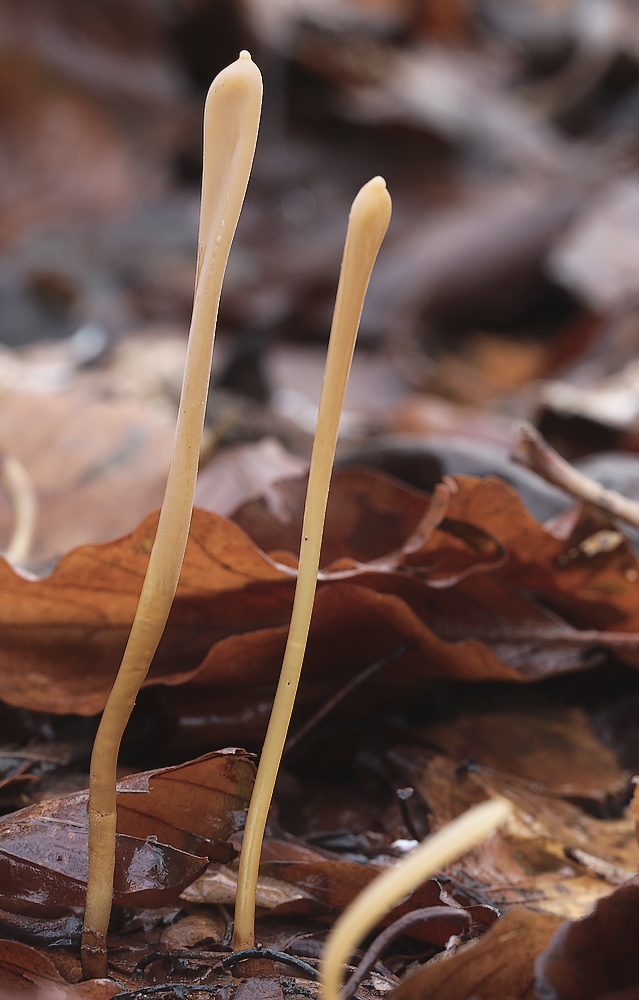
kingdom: Fungi
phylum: Basidiomycota
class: Agaricomycetes
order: Agaricales
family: Typhulaceae
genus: Typhula
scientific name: Typhula fistulosa
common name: pibet rørkølle
